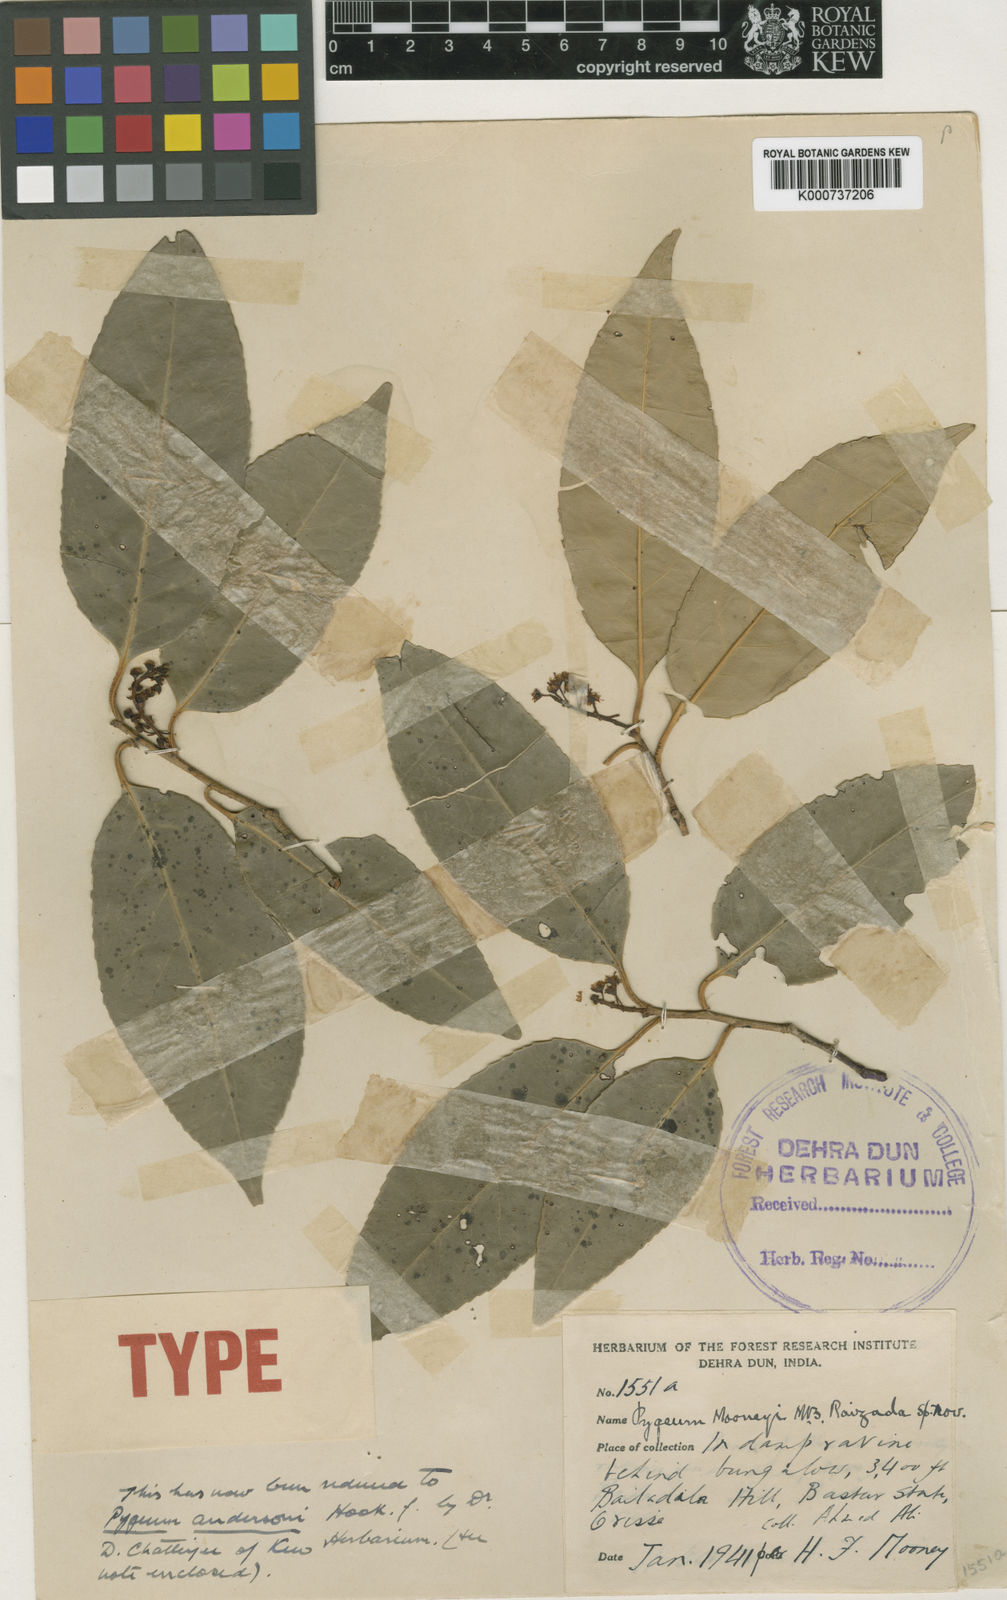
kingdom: Plantae
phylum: Tracheophyta
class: Magnoliopsida
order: Rosales
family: Rosaceae
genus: Prunus
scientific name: Prunus pygeoides
